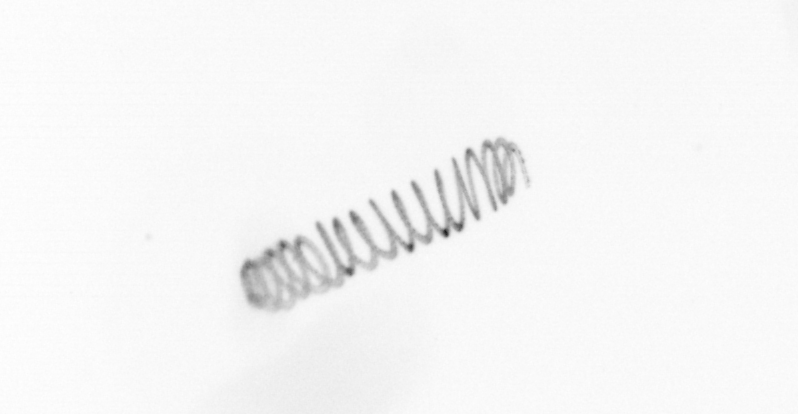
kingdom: Chromista
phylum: Ochrophyta
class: Bacillariophyceae
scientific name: Bacillariophyceae
